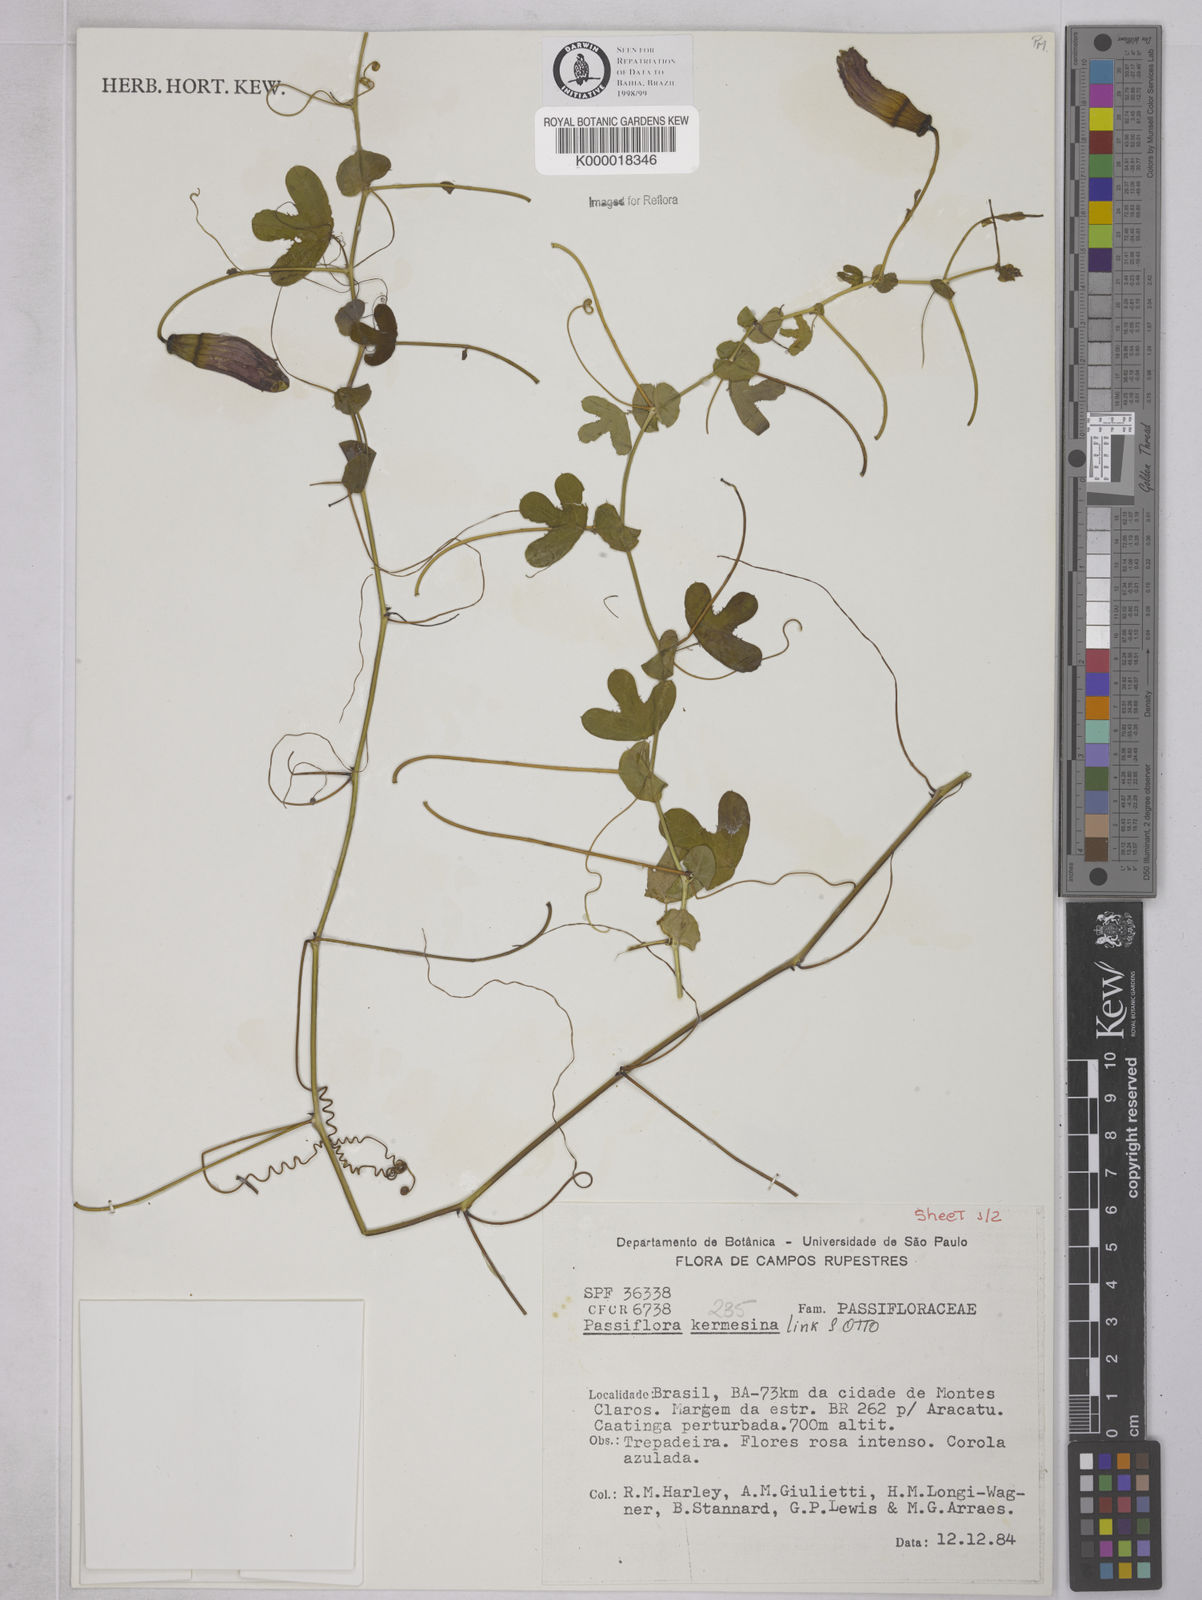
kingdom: Plantae
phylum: Tracheophyta
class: Magnoliopsida
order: Malpighiales
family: Passifloraceae
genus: Passiflora
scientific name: Passiflora kermesina
